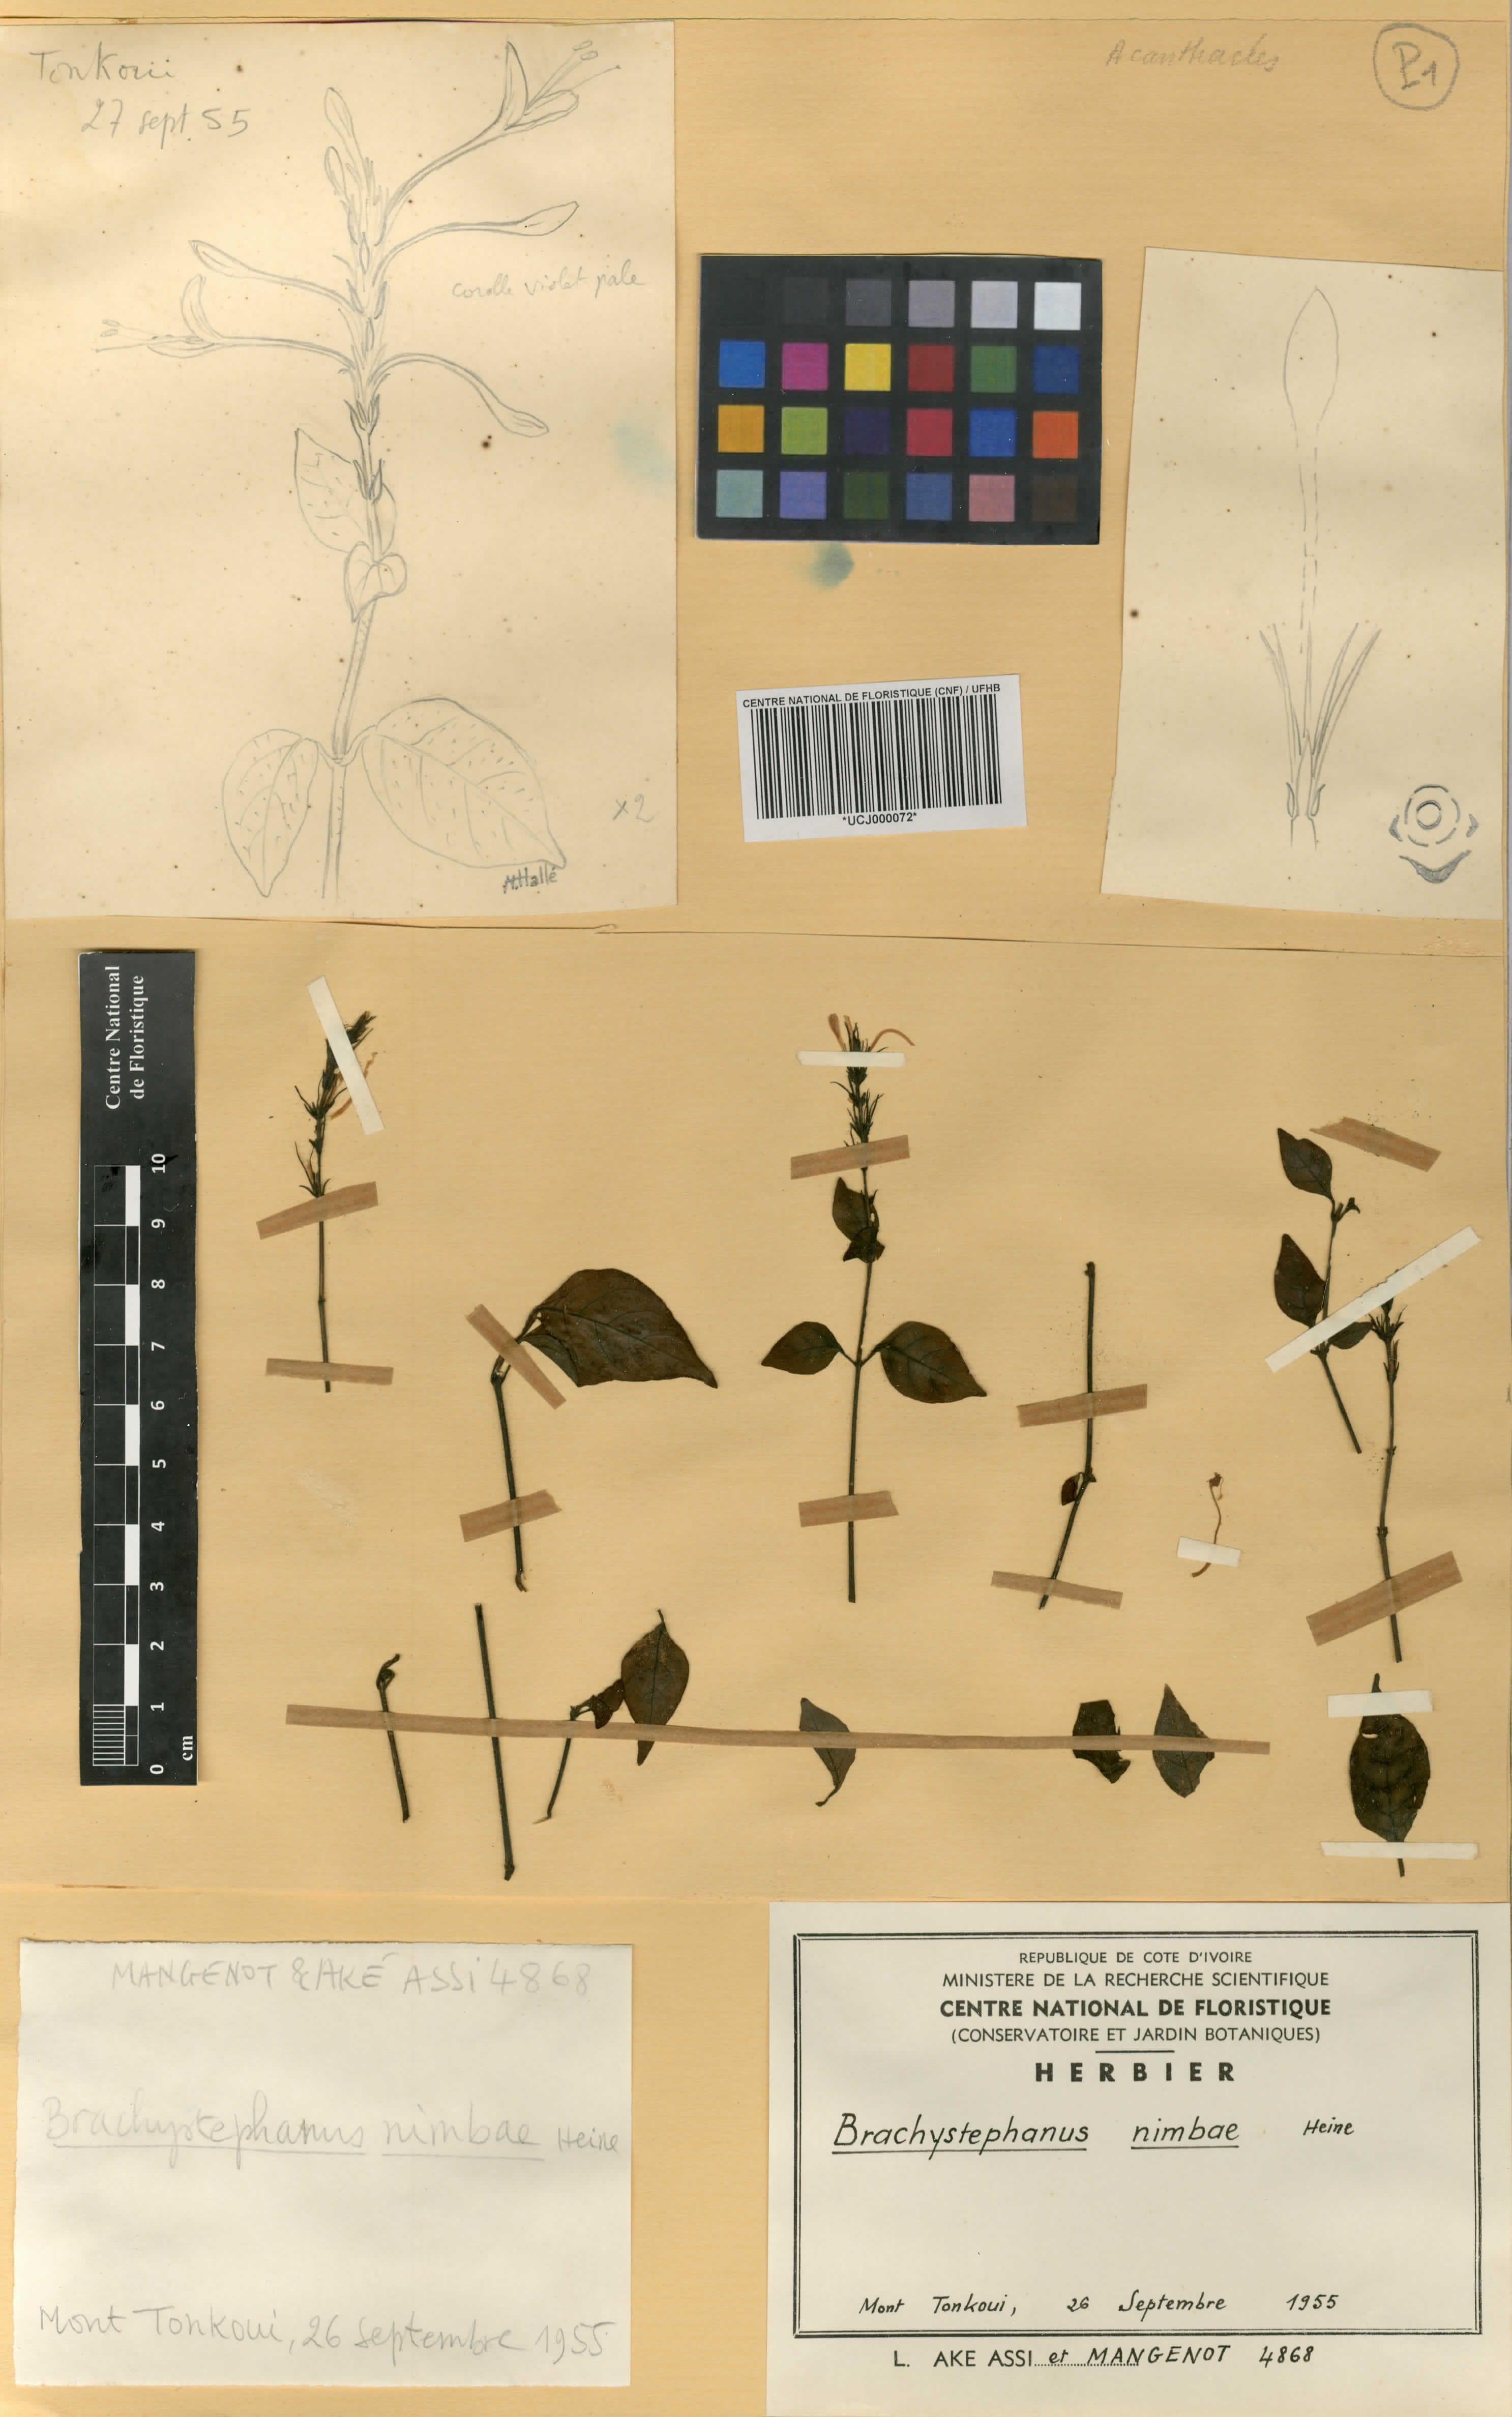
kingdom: Plantae
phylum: Tracheophyta
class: Magnoliopsida
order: Lamiales
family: Acanthaceae
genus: Brachystephanus
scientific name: Brachystephanus jaundensis
